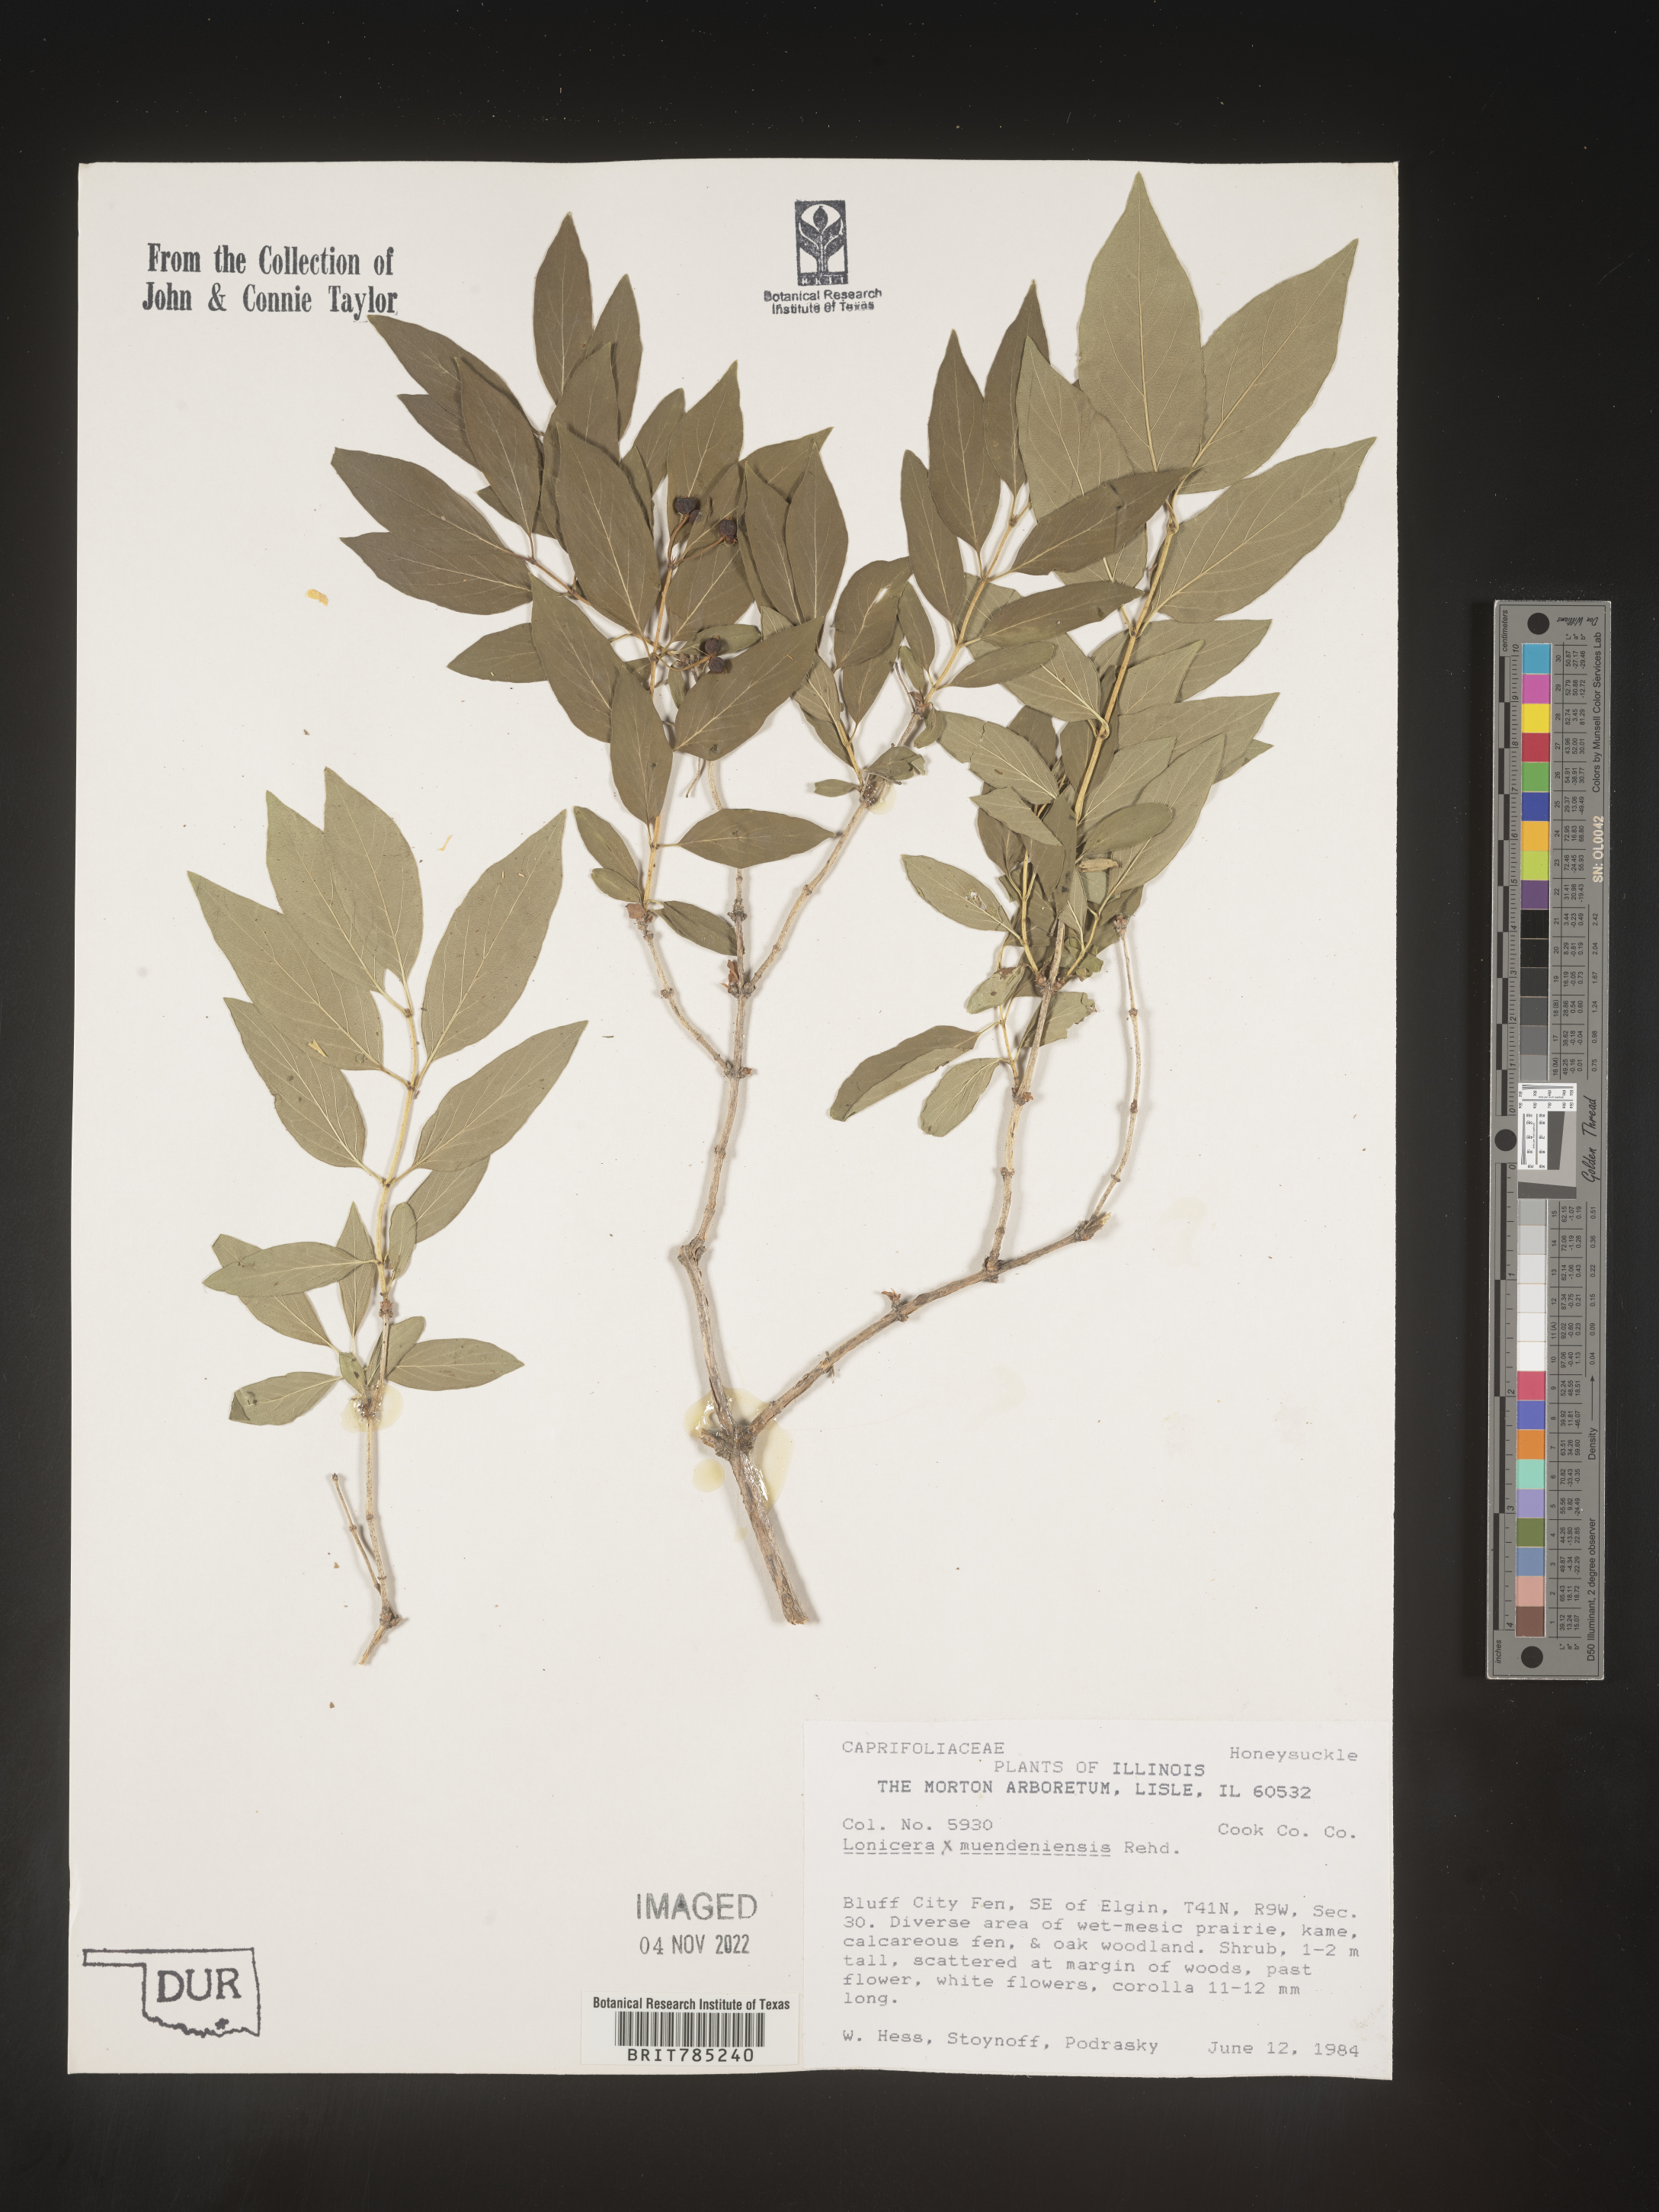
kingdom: Plantae
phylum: Tracheophyta
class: Magnoliopsida
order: Dipsacales
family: Caprifoliaceae
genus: Lonicera
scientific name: Lonicera
